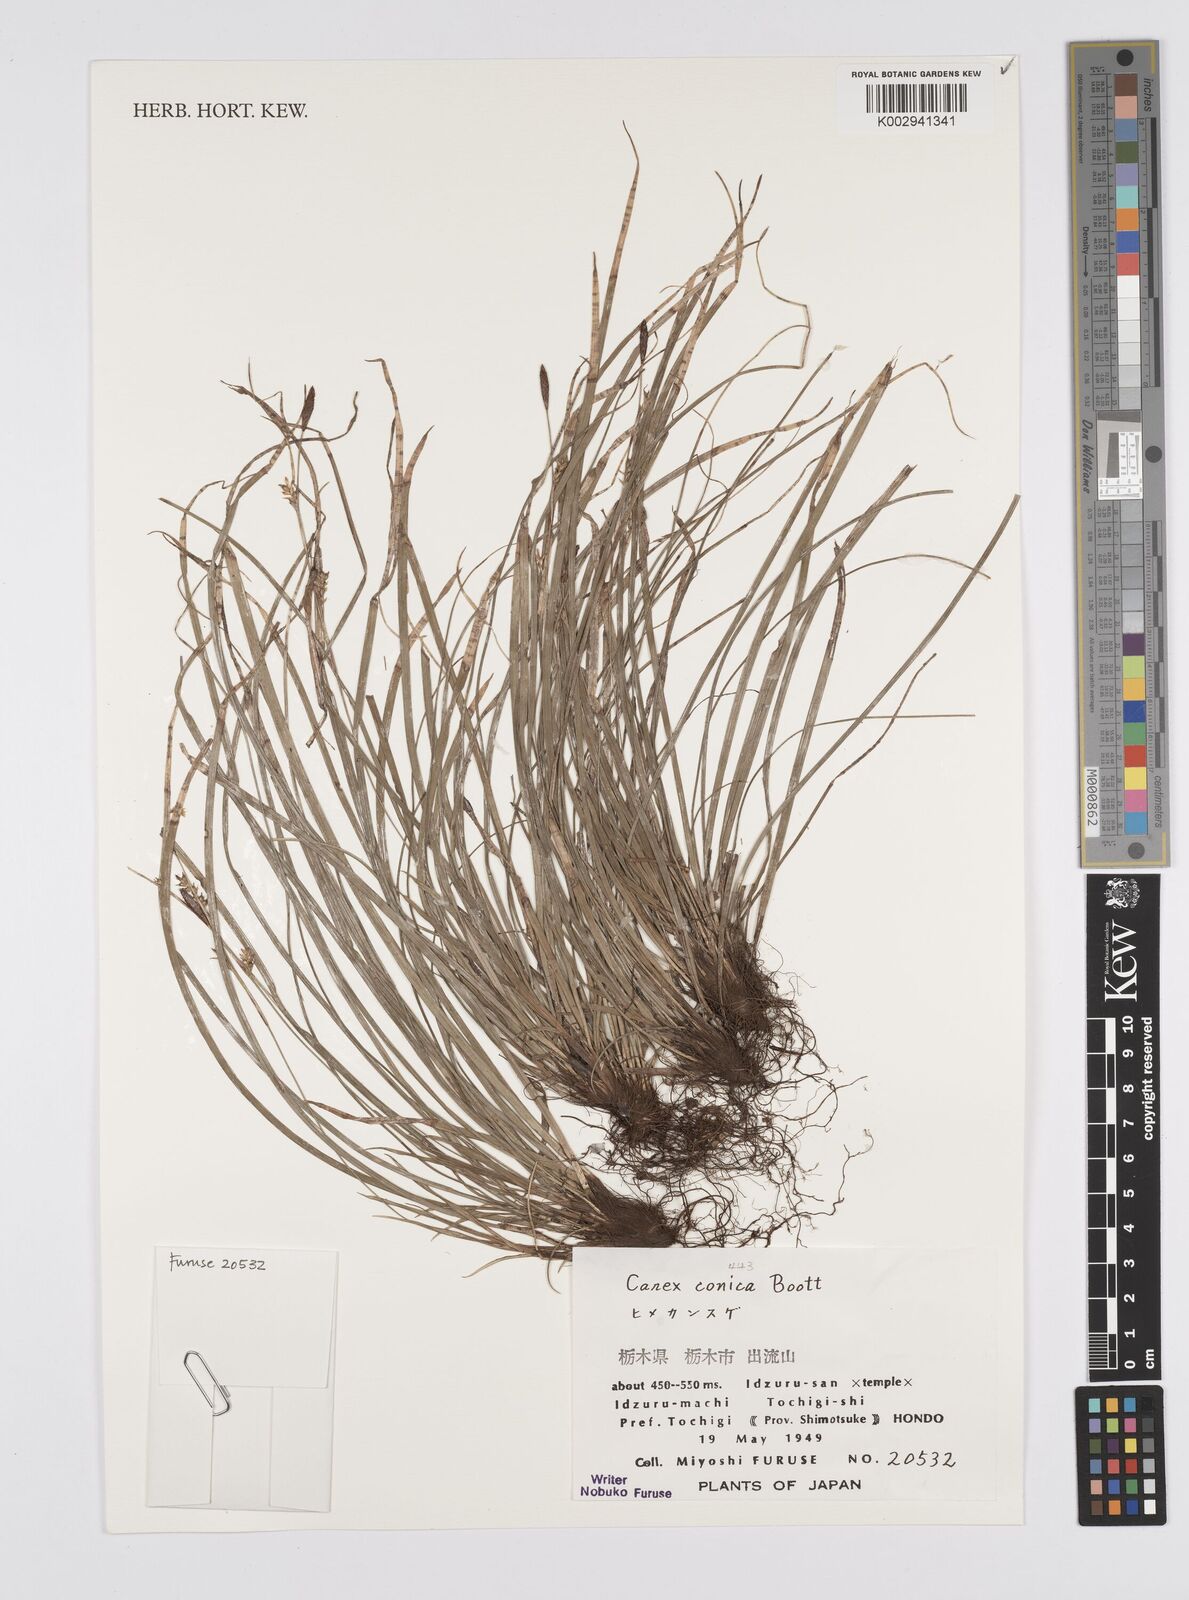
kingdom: Plantae
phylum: Tracheophyta
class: Liliopsida
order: Poales
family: Cyperaceae
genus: Carex
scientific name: Carex conica
